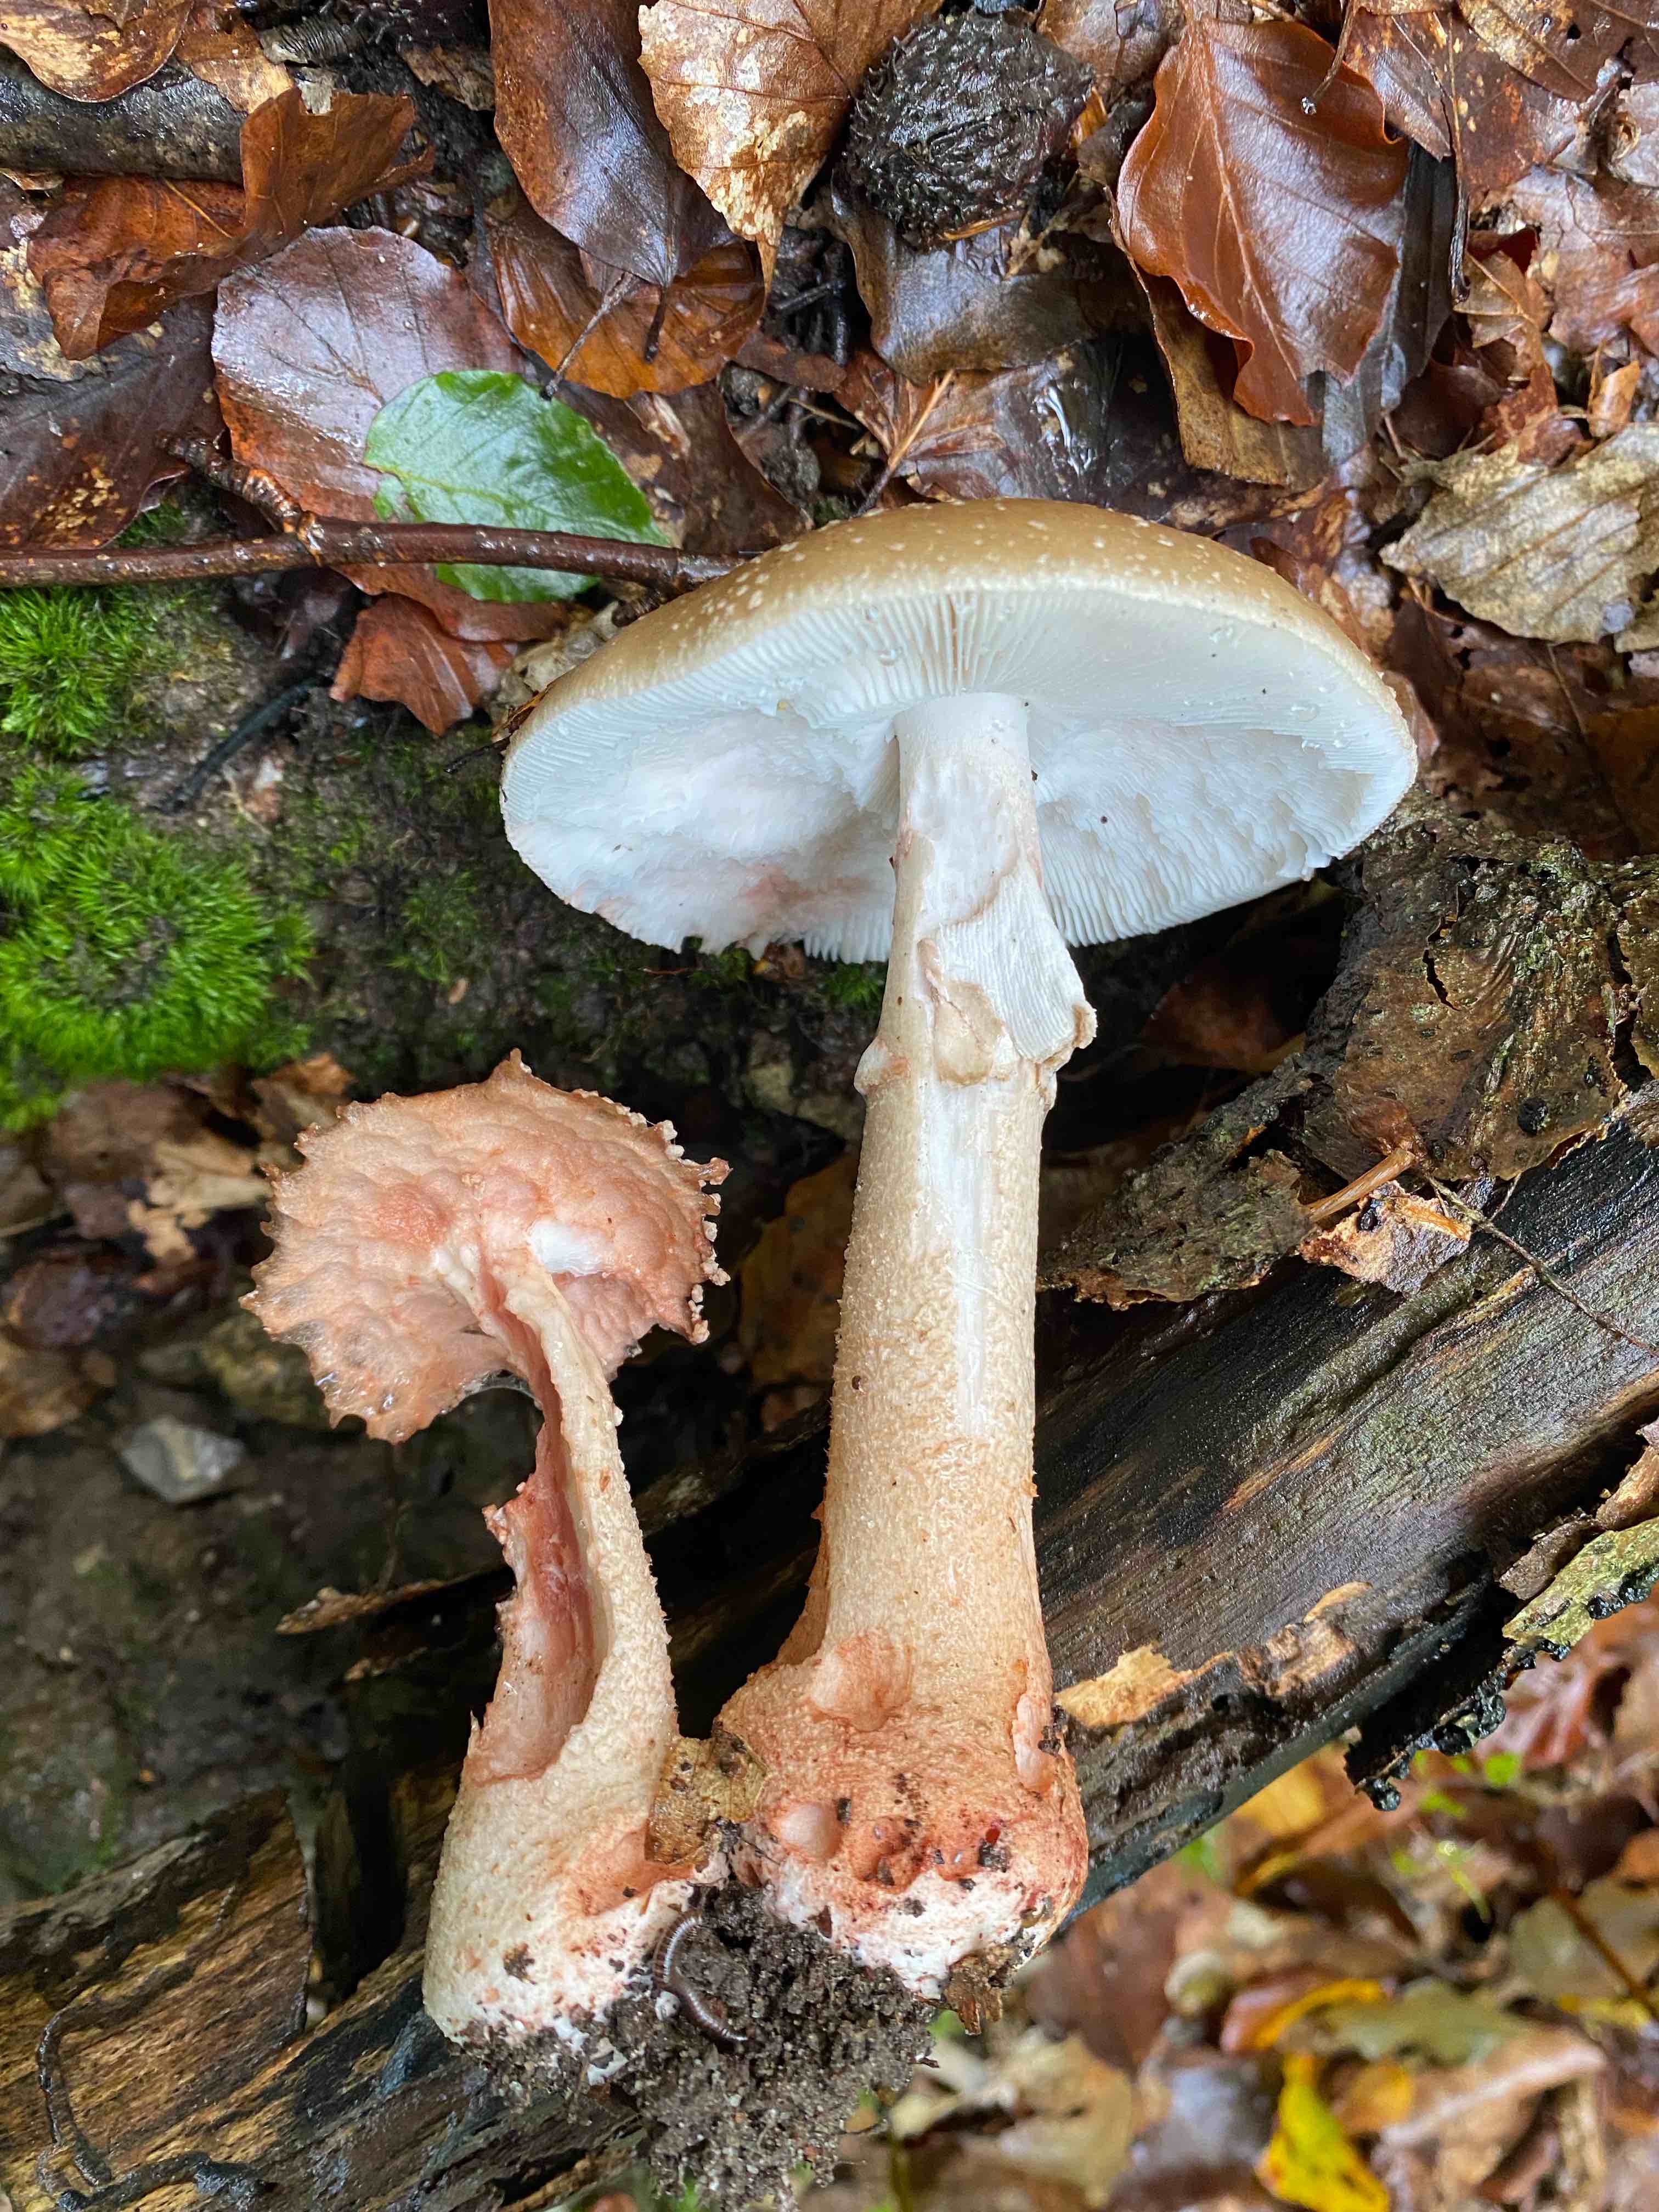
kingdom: Fungi
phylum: Basidiomycota
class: Agaricomycetes
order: Agaricales
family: Amanitaceae
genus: Amanita
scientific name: Amanita rubescens
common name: rødmende fluesvamp
